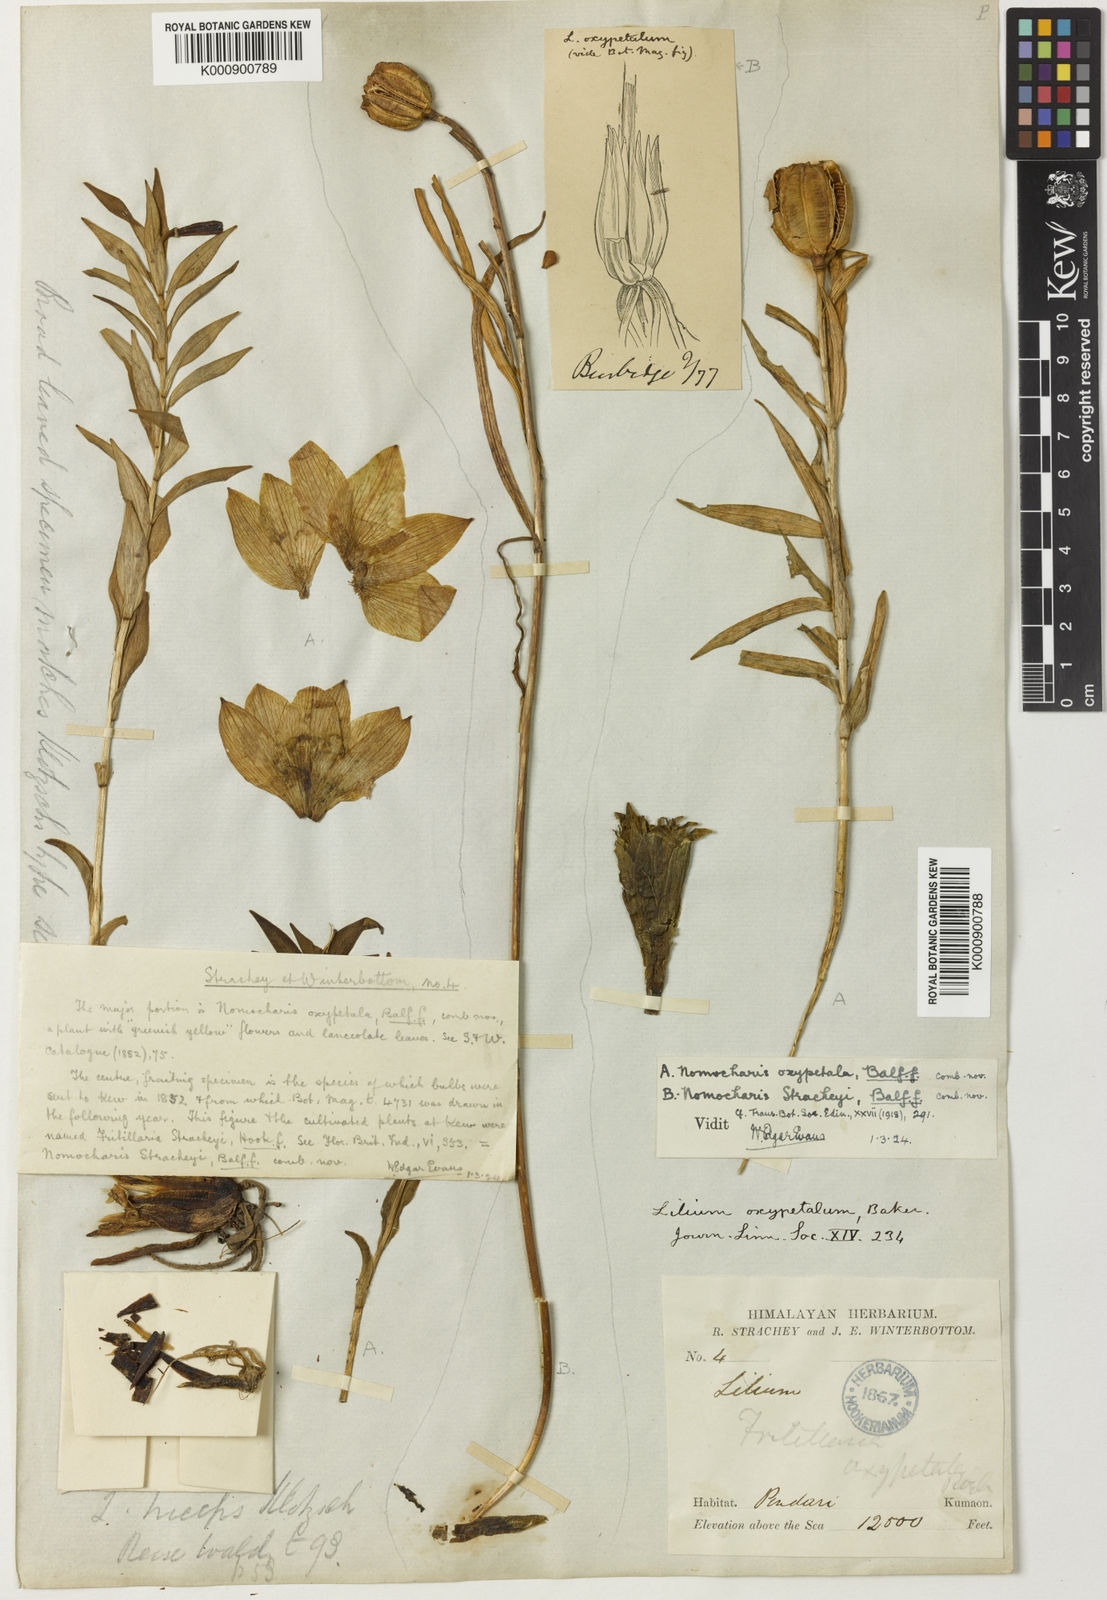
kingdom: Plantae
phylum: Tracheophyta
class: Liliopsida
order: Liliales
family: Liliaceae
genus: Lilium
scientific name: Lilium oxypetalum
